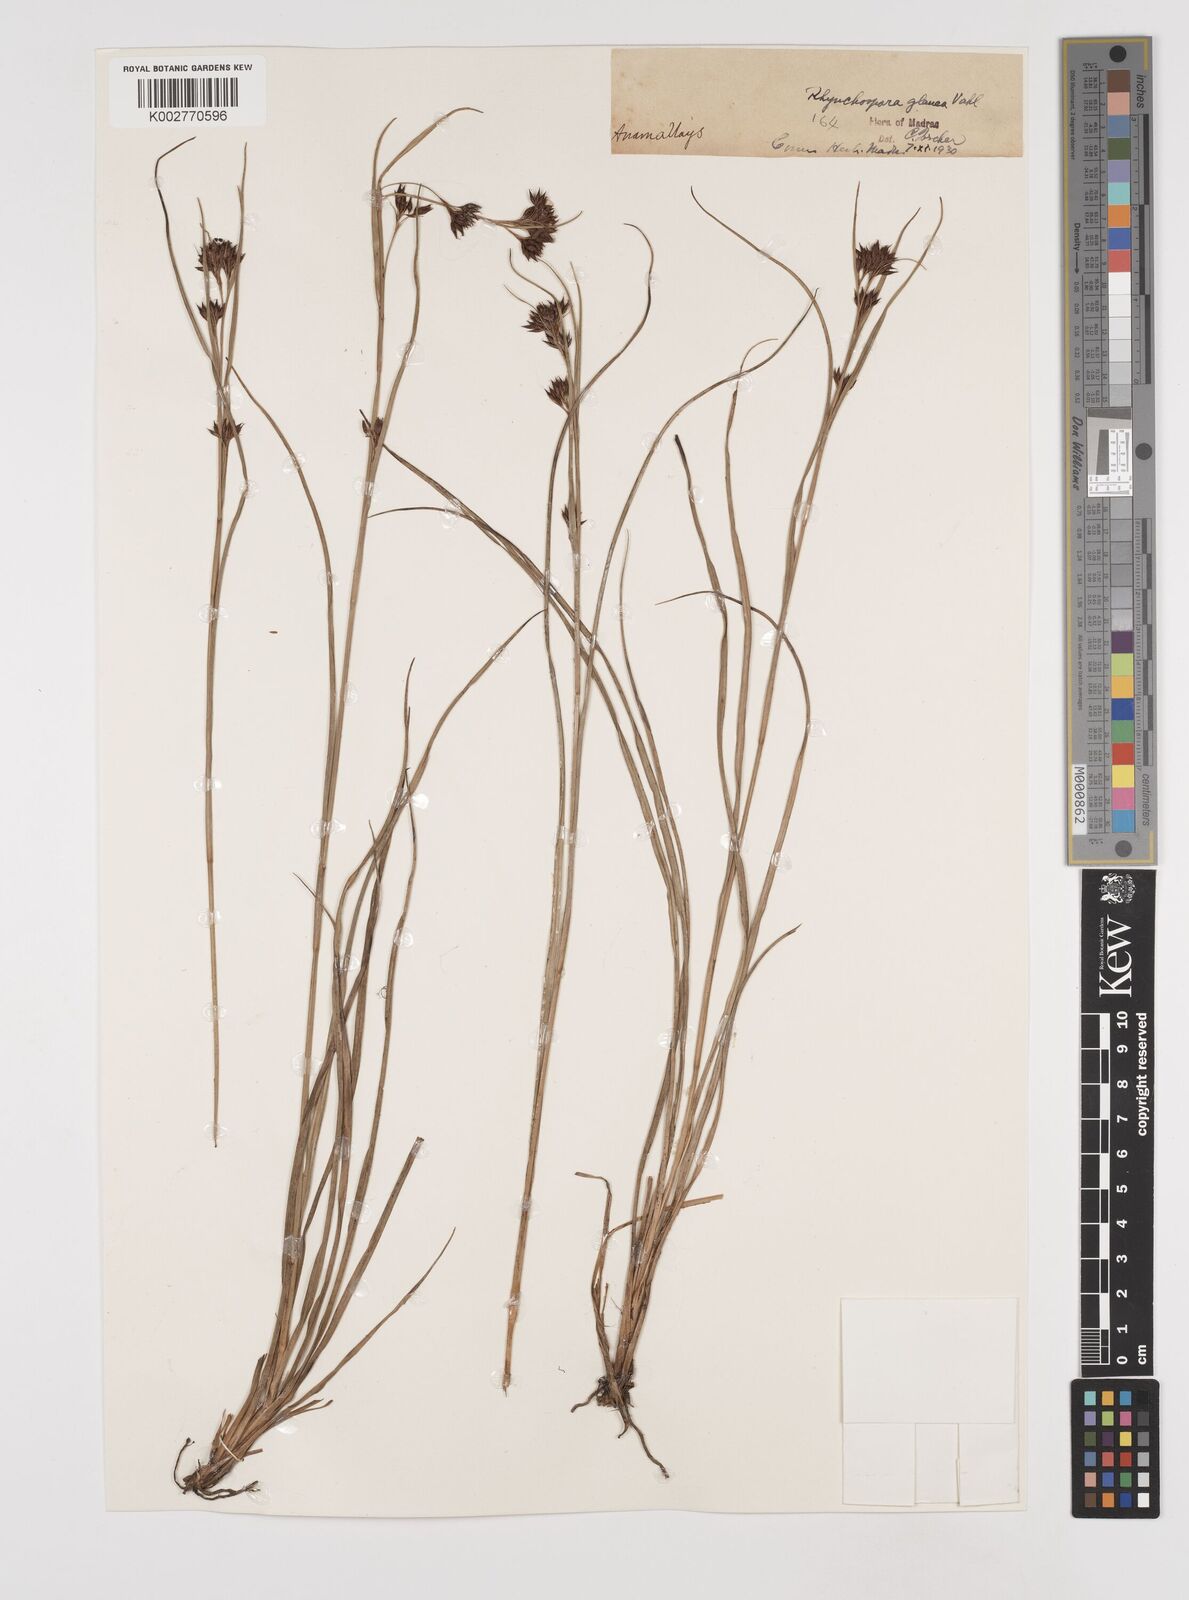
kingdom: Plantae
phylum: Tracheophyta
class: Liliopsida
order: Poales
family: Cyperaceae
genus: Rhynchospora
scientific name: Rhynchospora rugosa
